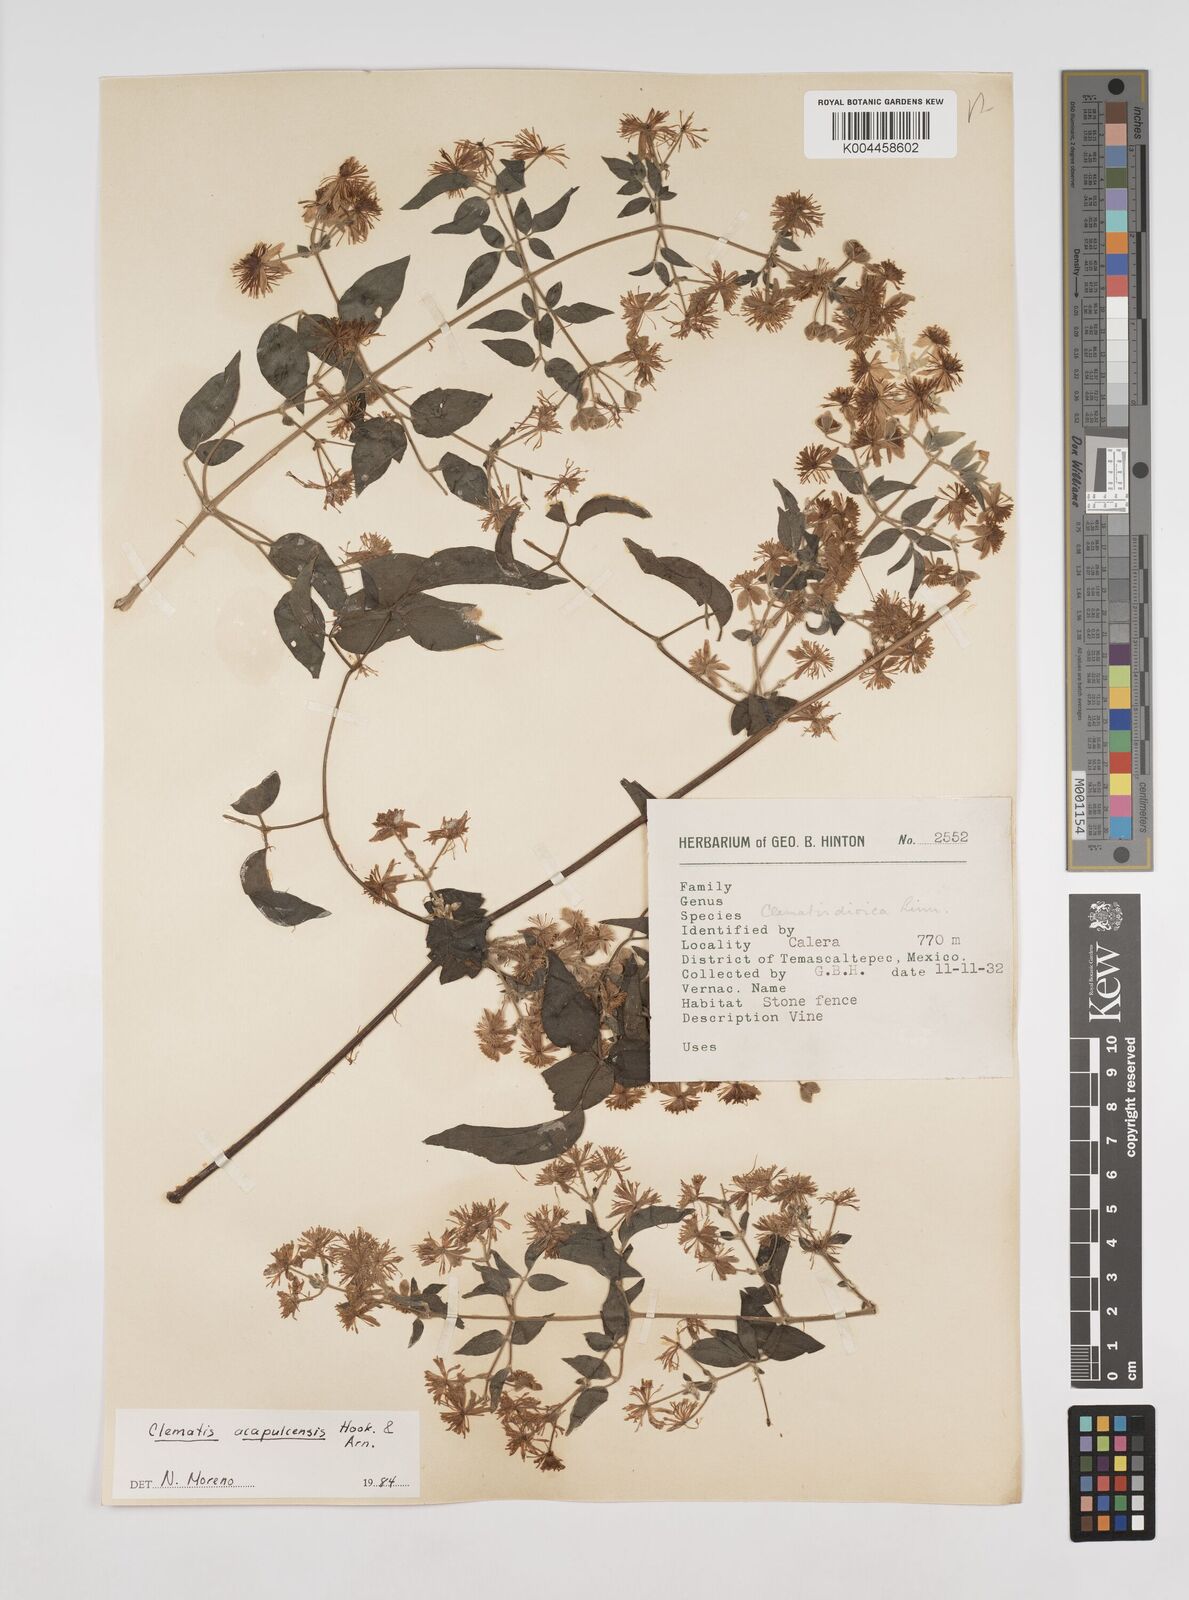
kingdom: Plantae
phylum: Tracheophyta
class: Magnoliopsida
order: Ranunculales
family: Ranunculaceae
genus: Clematis
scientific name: Clematis acapulcensis
